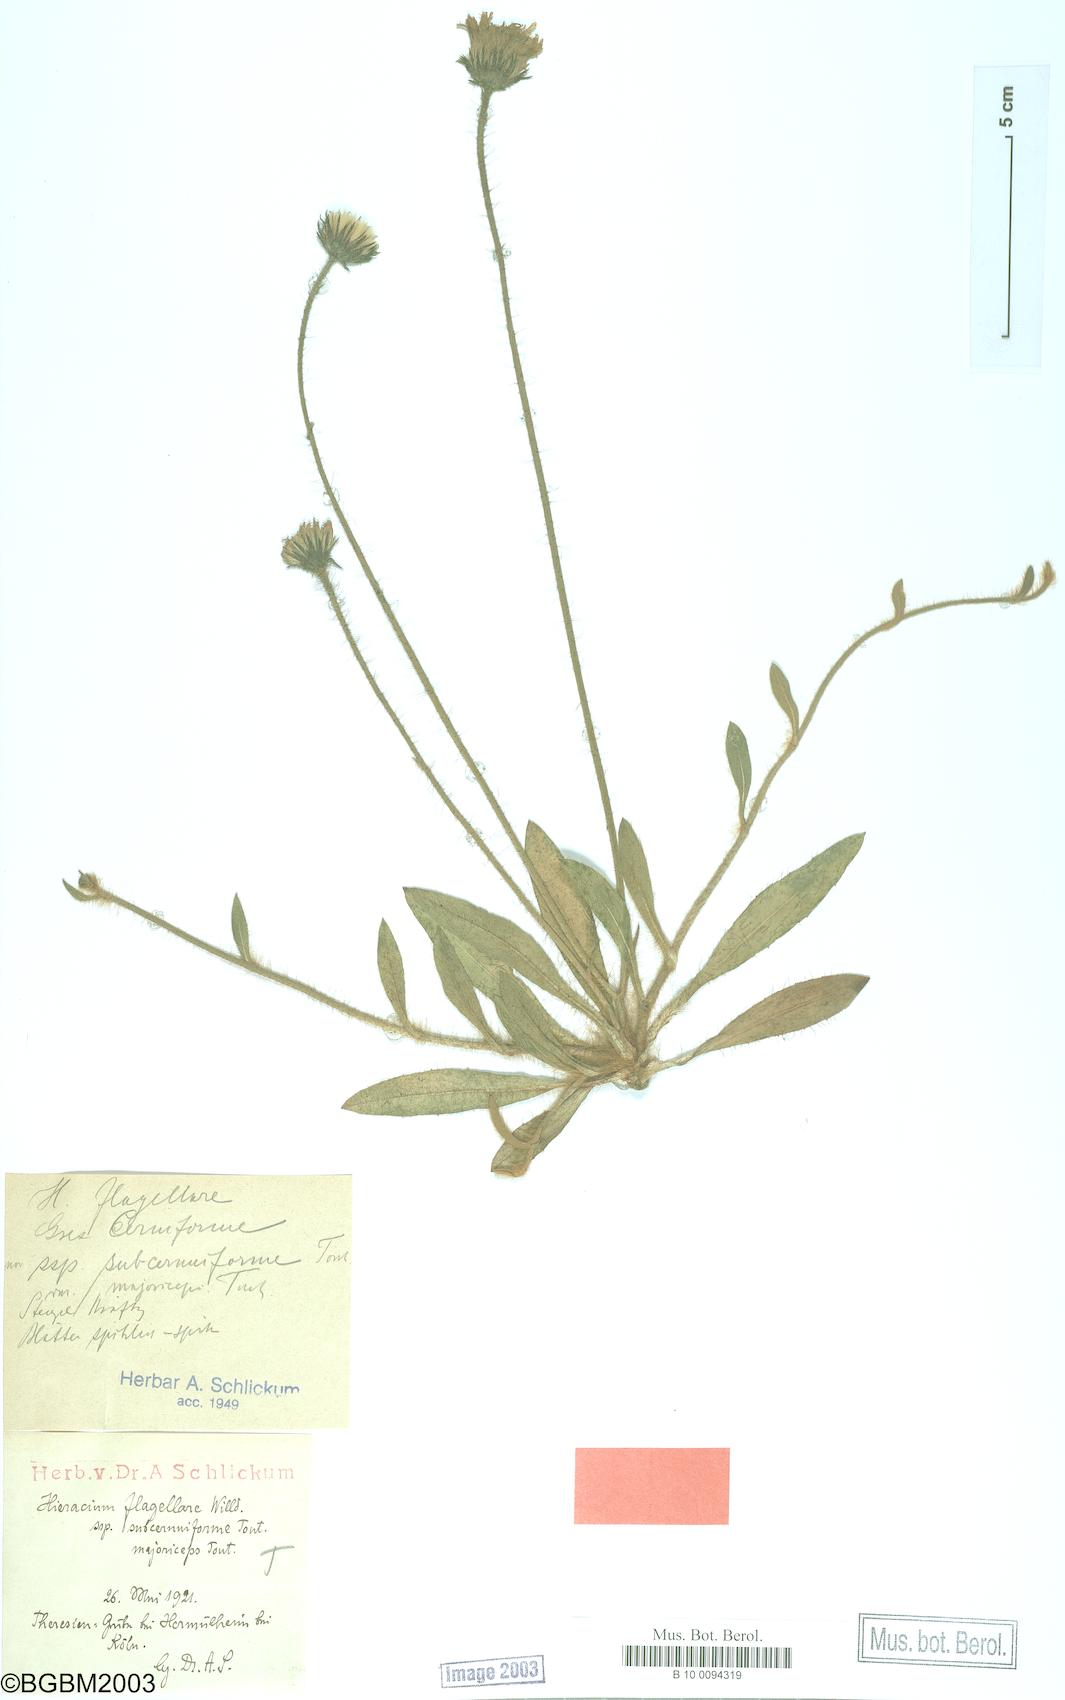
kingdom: Plantae
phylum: Tracheophyta
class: Magnoliopsida
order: Asterales
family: Asteraceae
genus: Hieracium
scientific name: Hieracium flagellare
